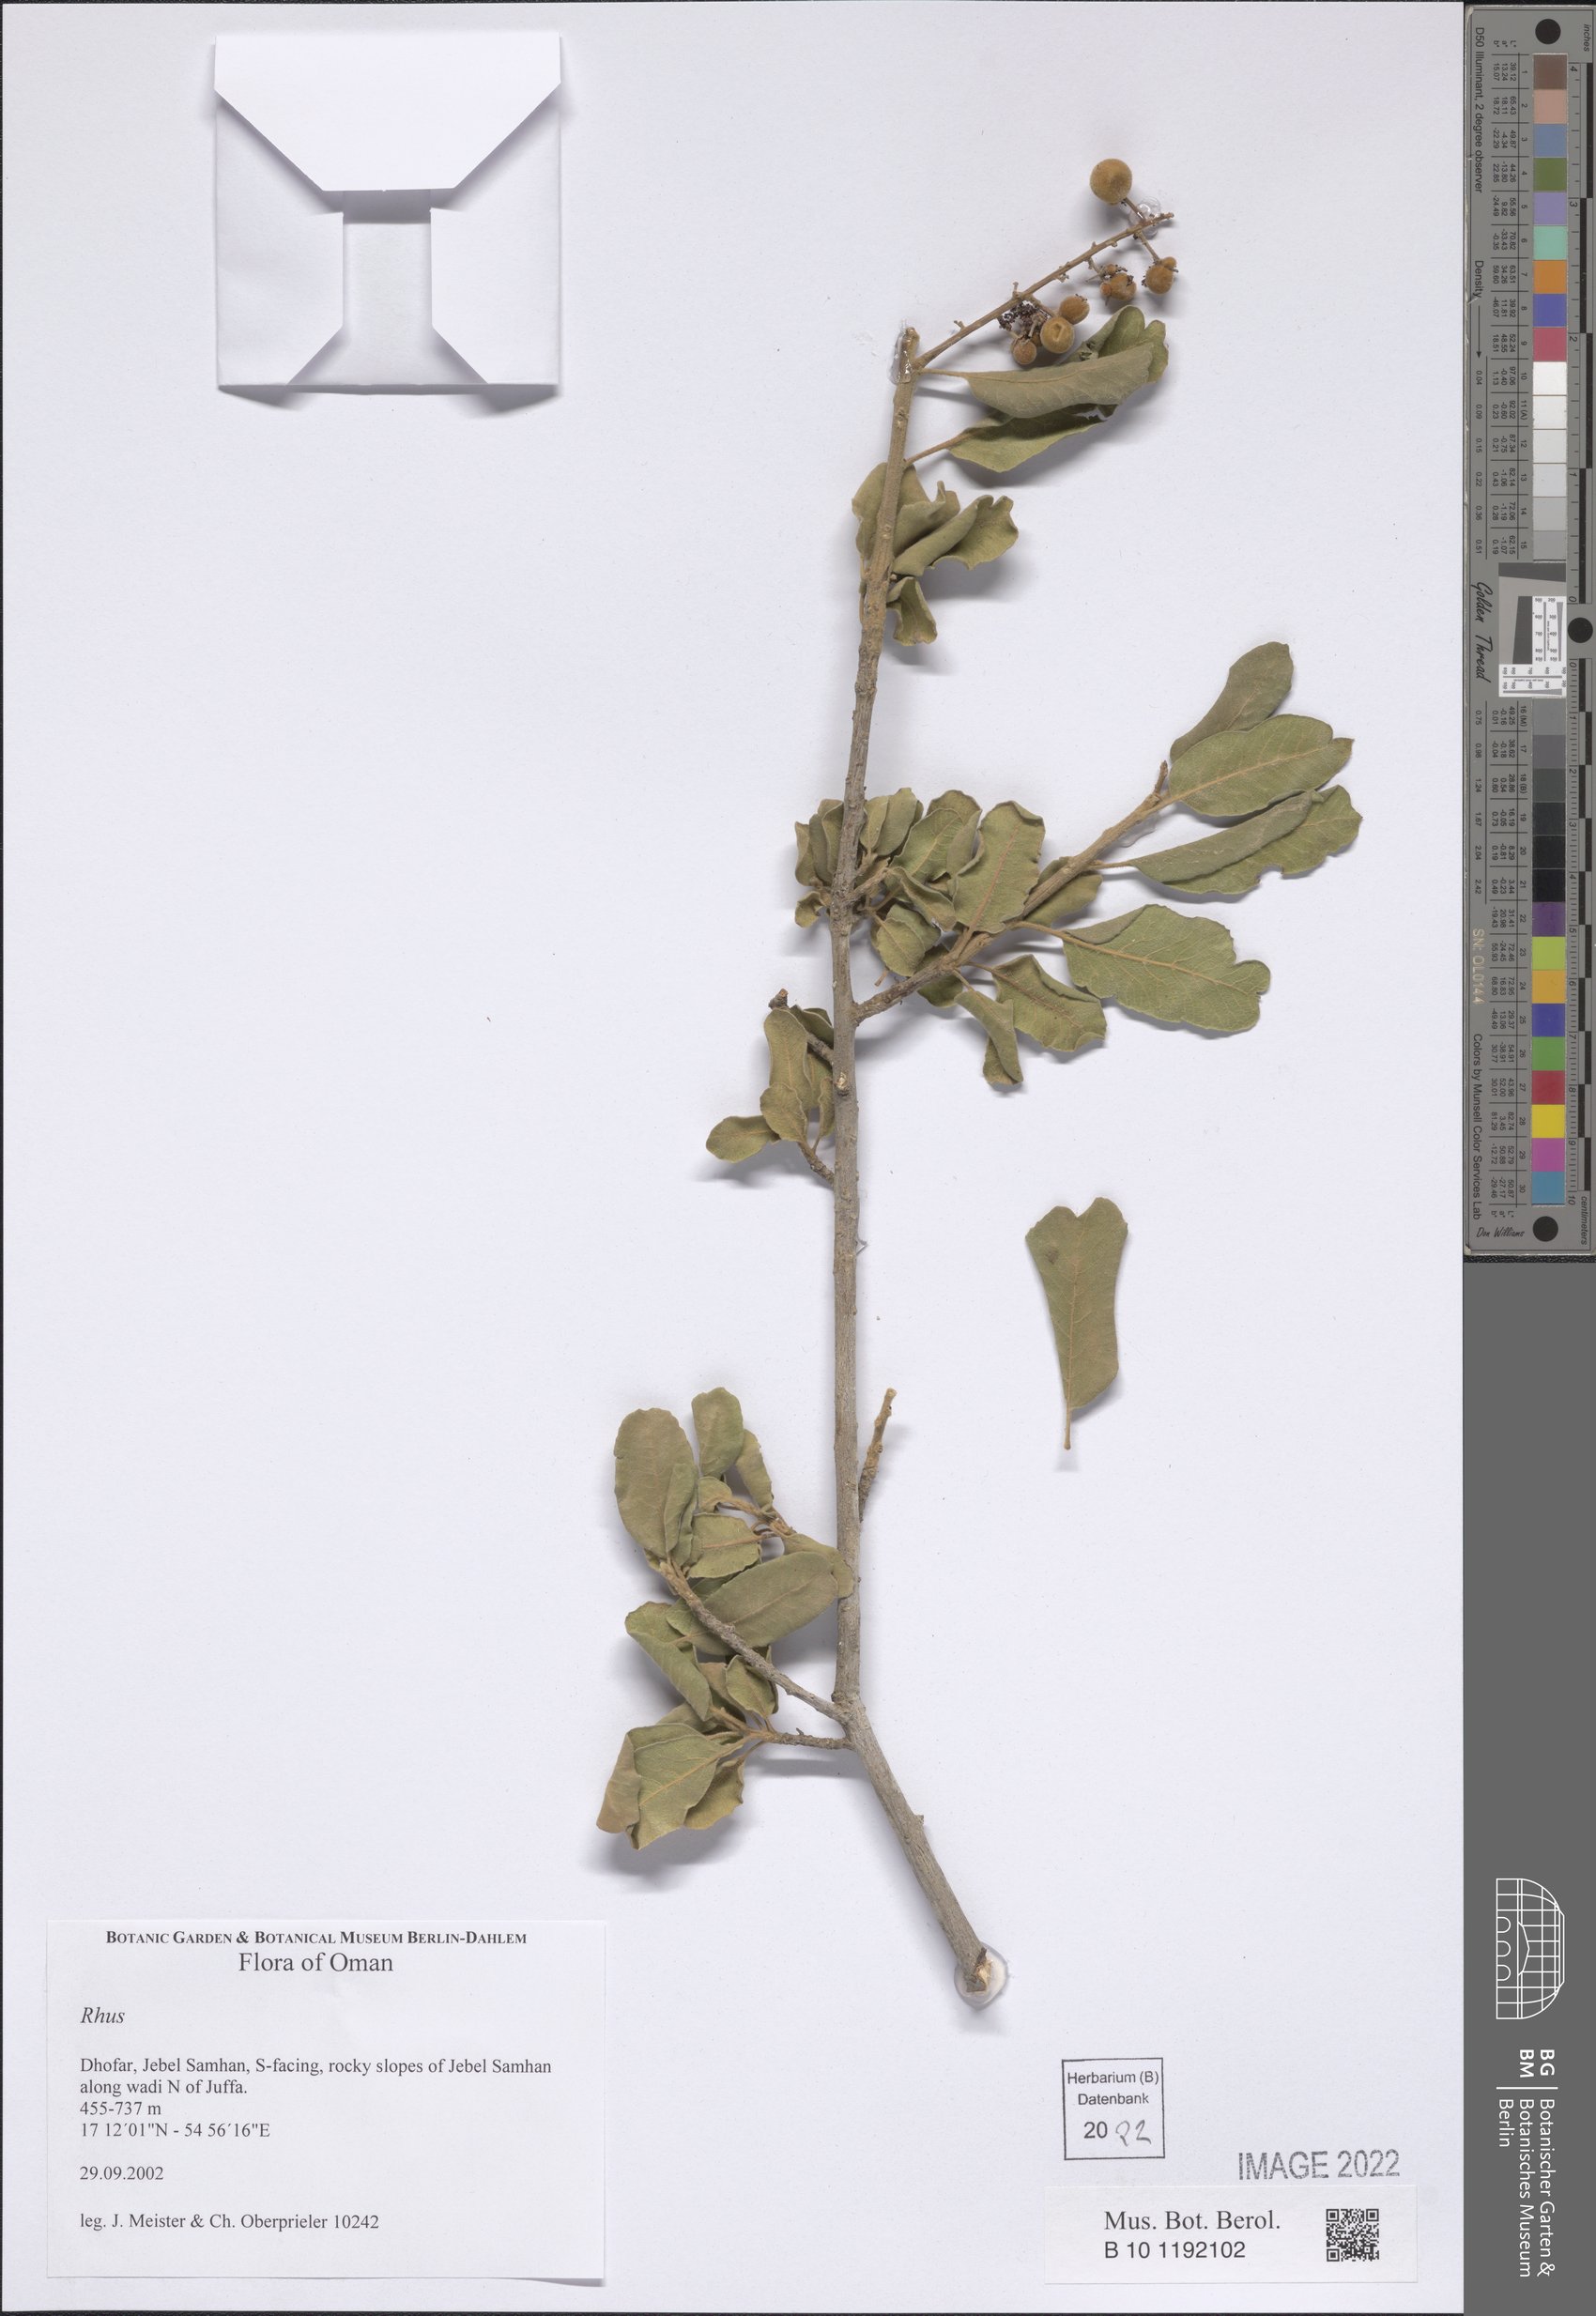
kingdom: Plantae
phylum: Tracheophyta
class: Magnoliopsida
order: Sapindales
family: Anacardiaceae
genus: Rhus
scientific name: Rhus
